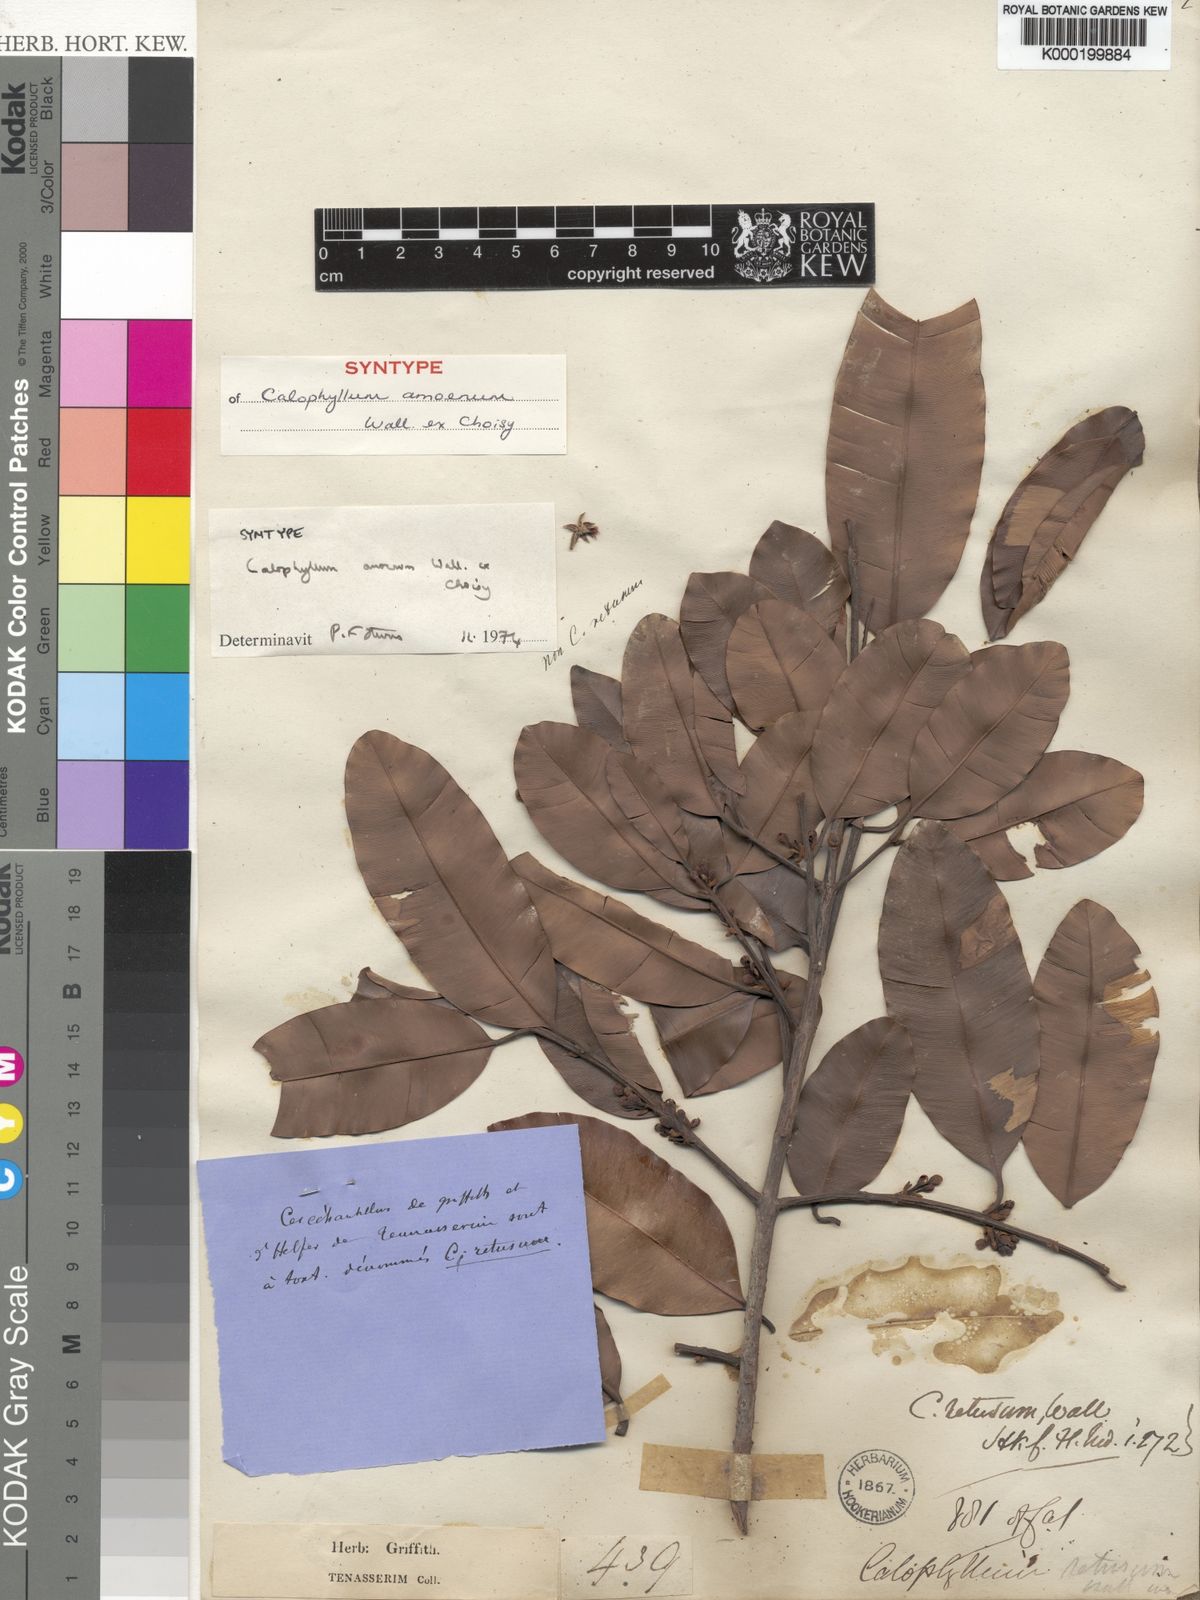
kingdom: Plantae
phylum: Tracheophyta
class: Magnoliopsida
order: Malpighiales
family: Calophyllaceae
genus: Calophyllum
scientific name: Calophyllum calaba
